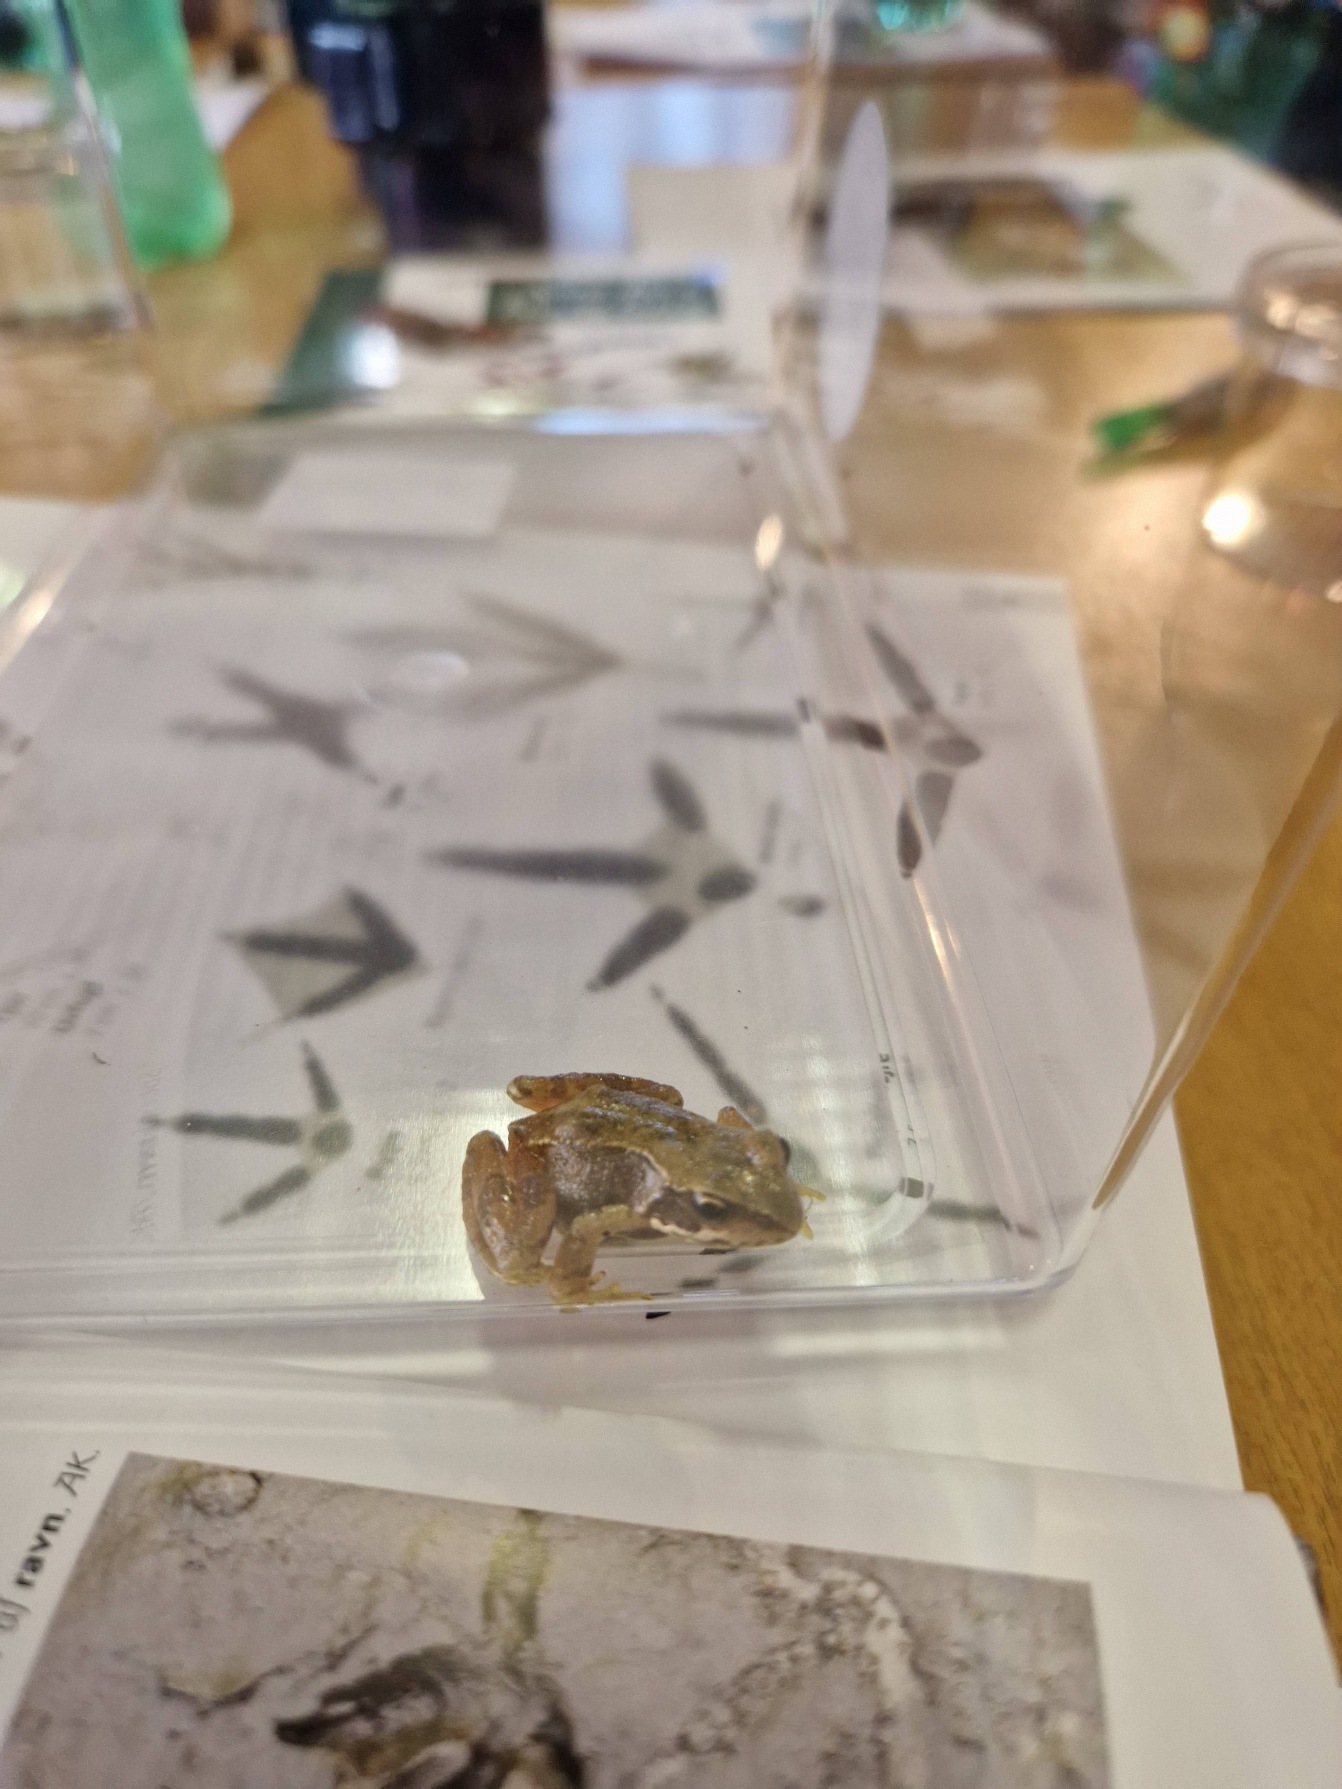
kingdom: Animalia
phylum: Chordata
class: Amphibia
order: Anura
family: Ranidae
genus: Rana
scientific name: Rana temporaria
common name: Butsnudet frø
